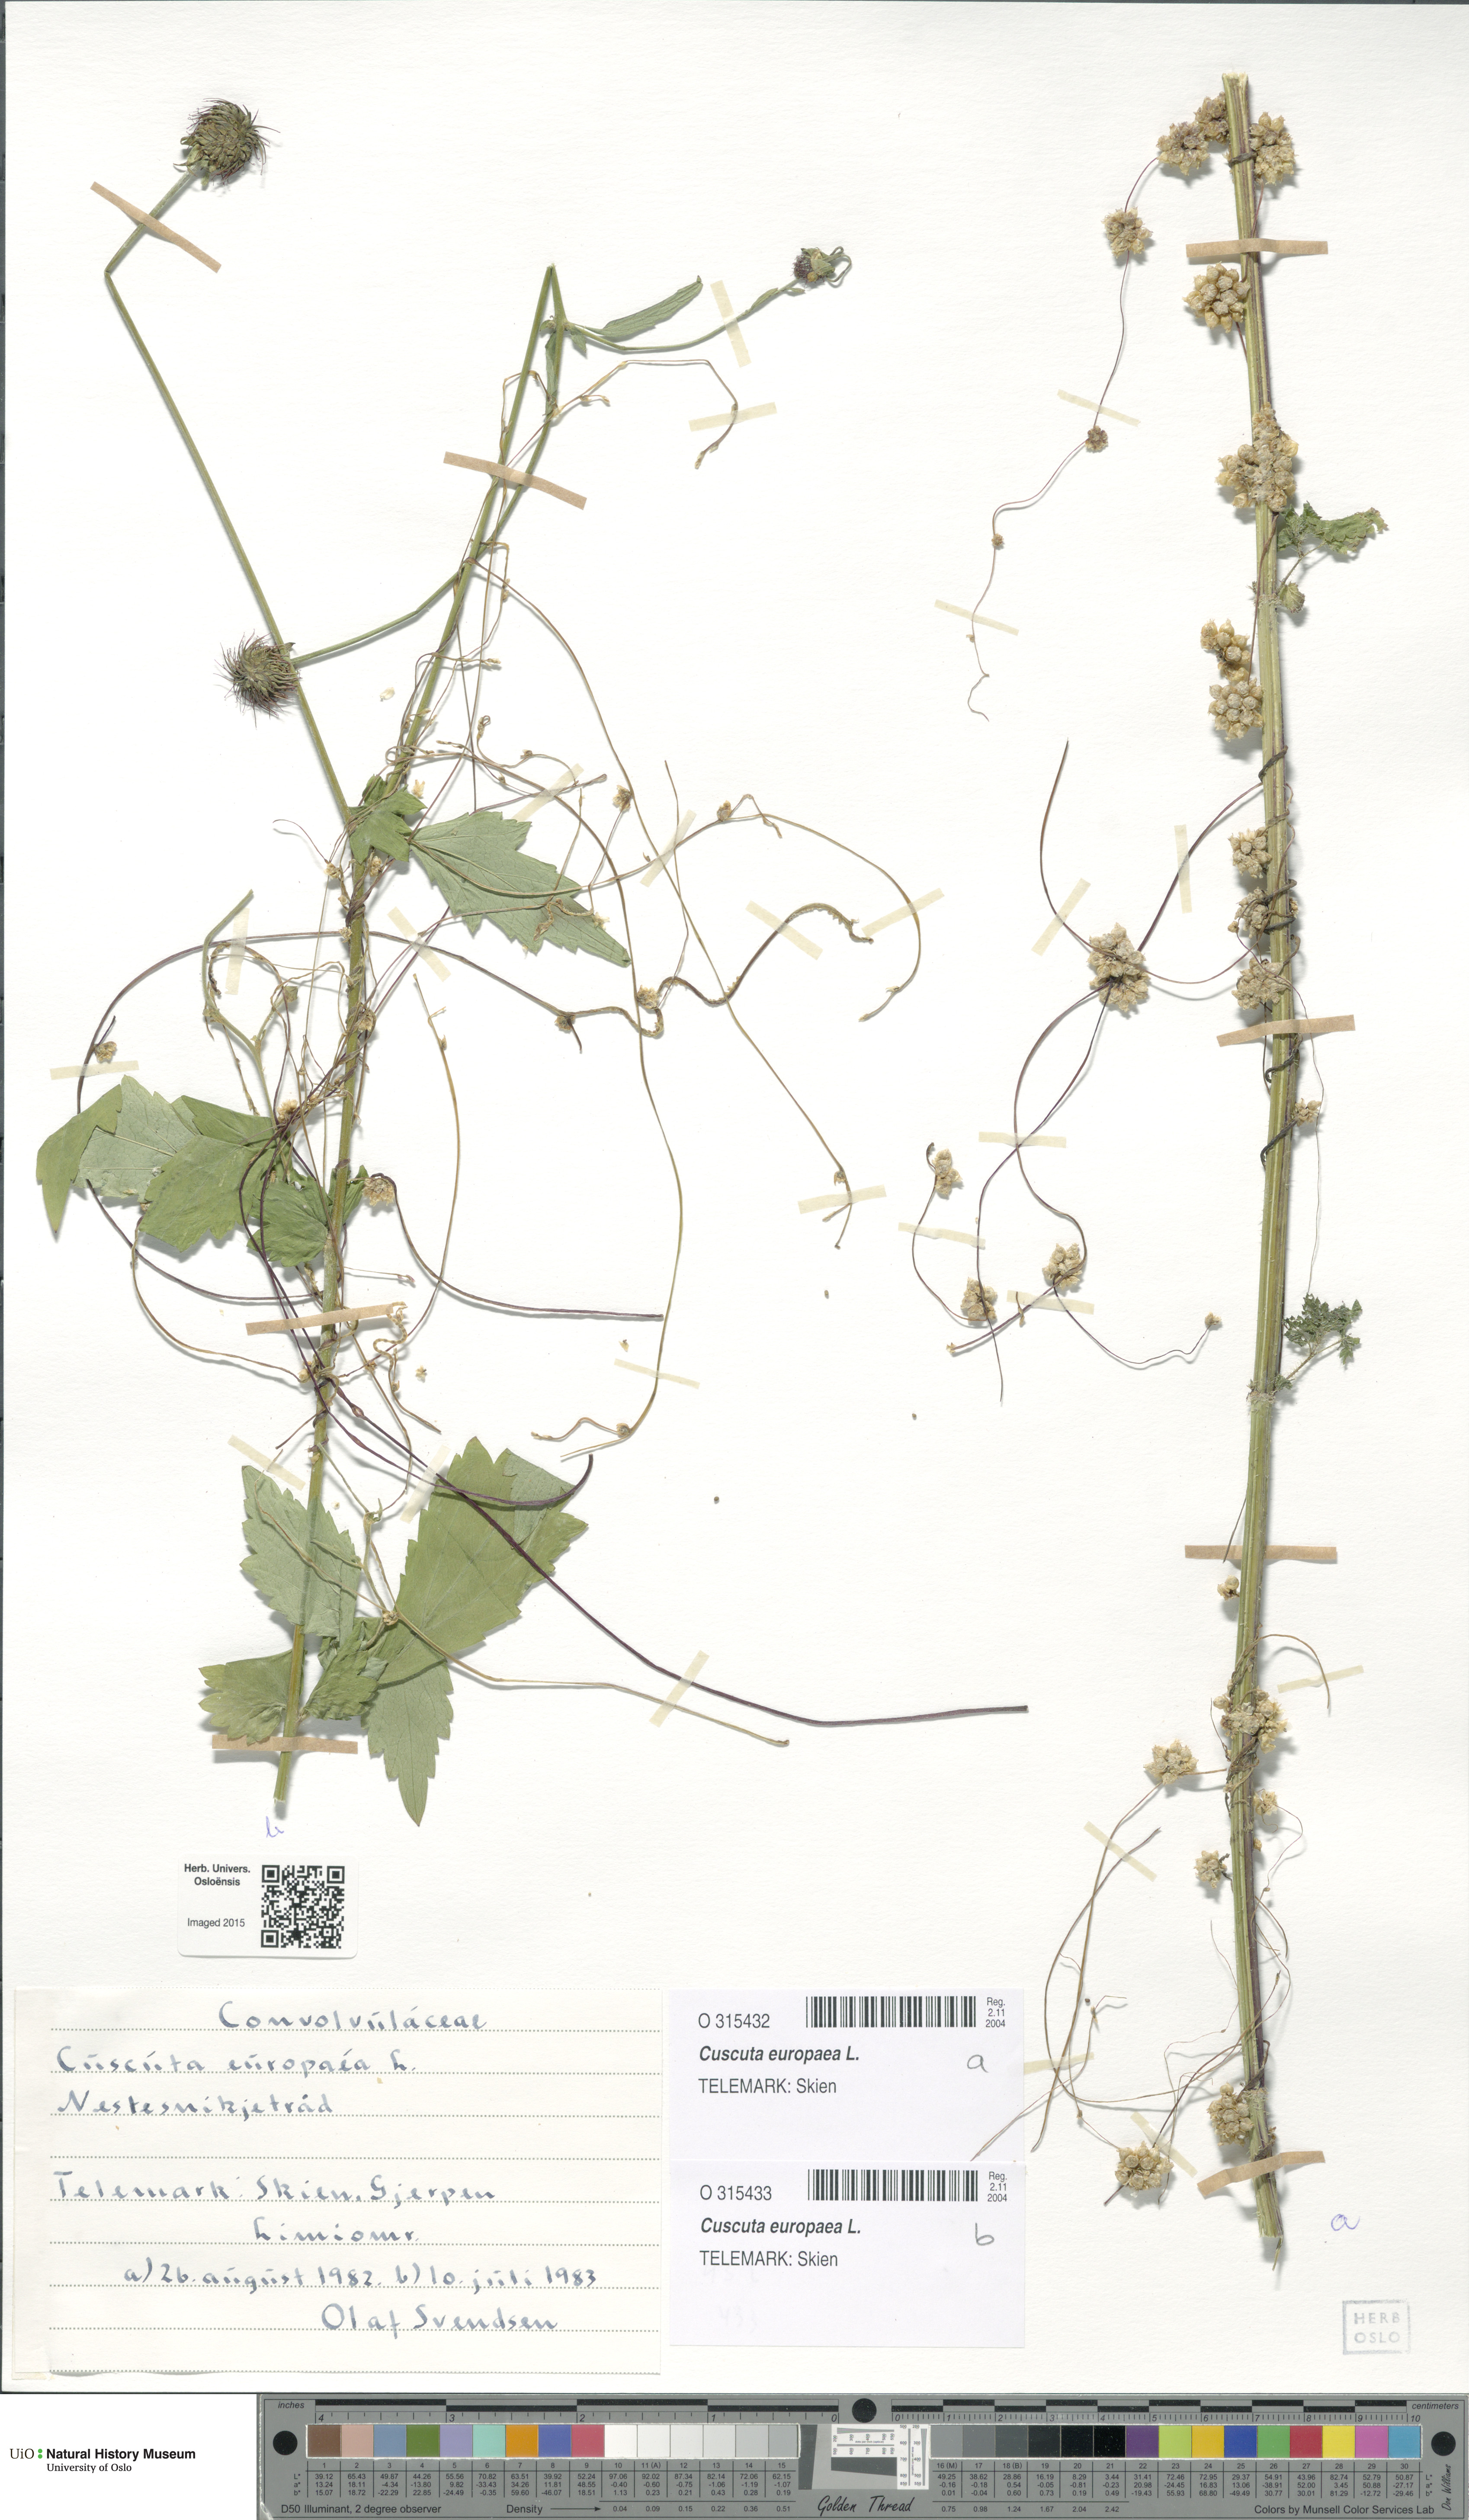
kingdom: Plantae
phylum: Tracheophyta
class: Magnoliopsida
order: Solanales
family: Convolvulaceae
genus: Cuscuta
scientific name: Cuscuta europaea
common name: Greater dodder
